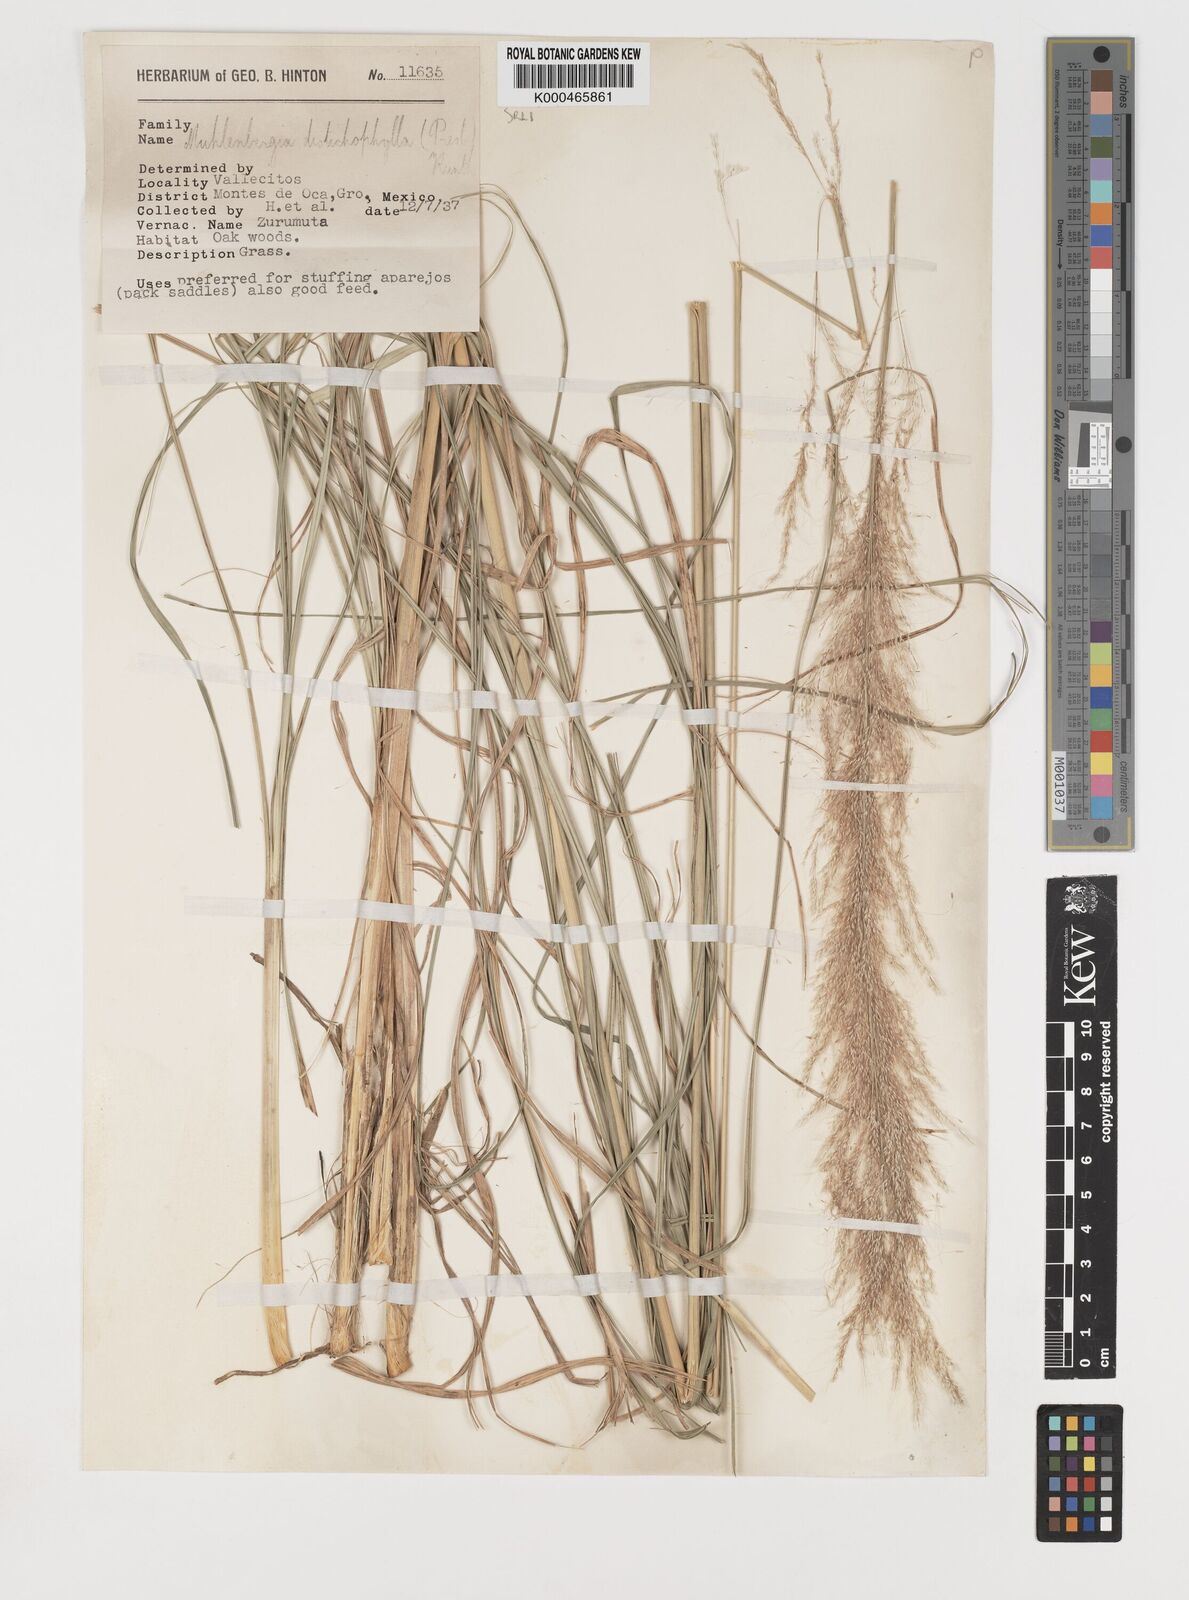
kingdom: Plantae
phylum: Tracheophyta
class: Liliopsida
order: Poales
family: Poaceae
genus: Muhlenbergia
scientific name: Muhlenbergia distichophylla
